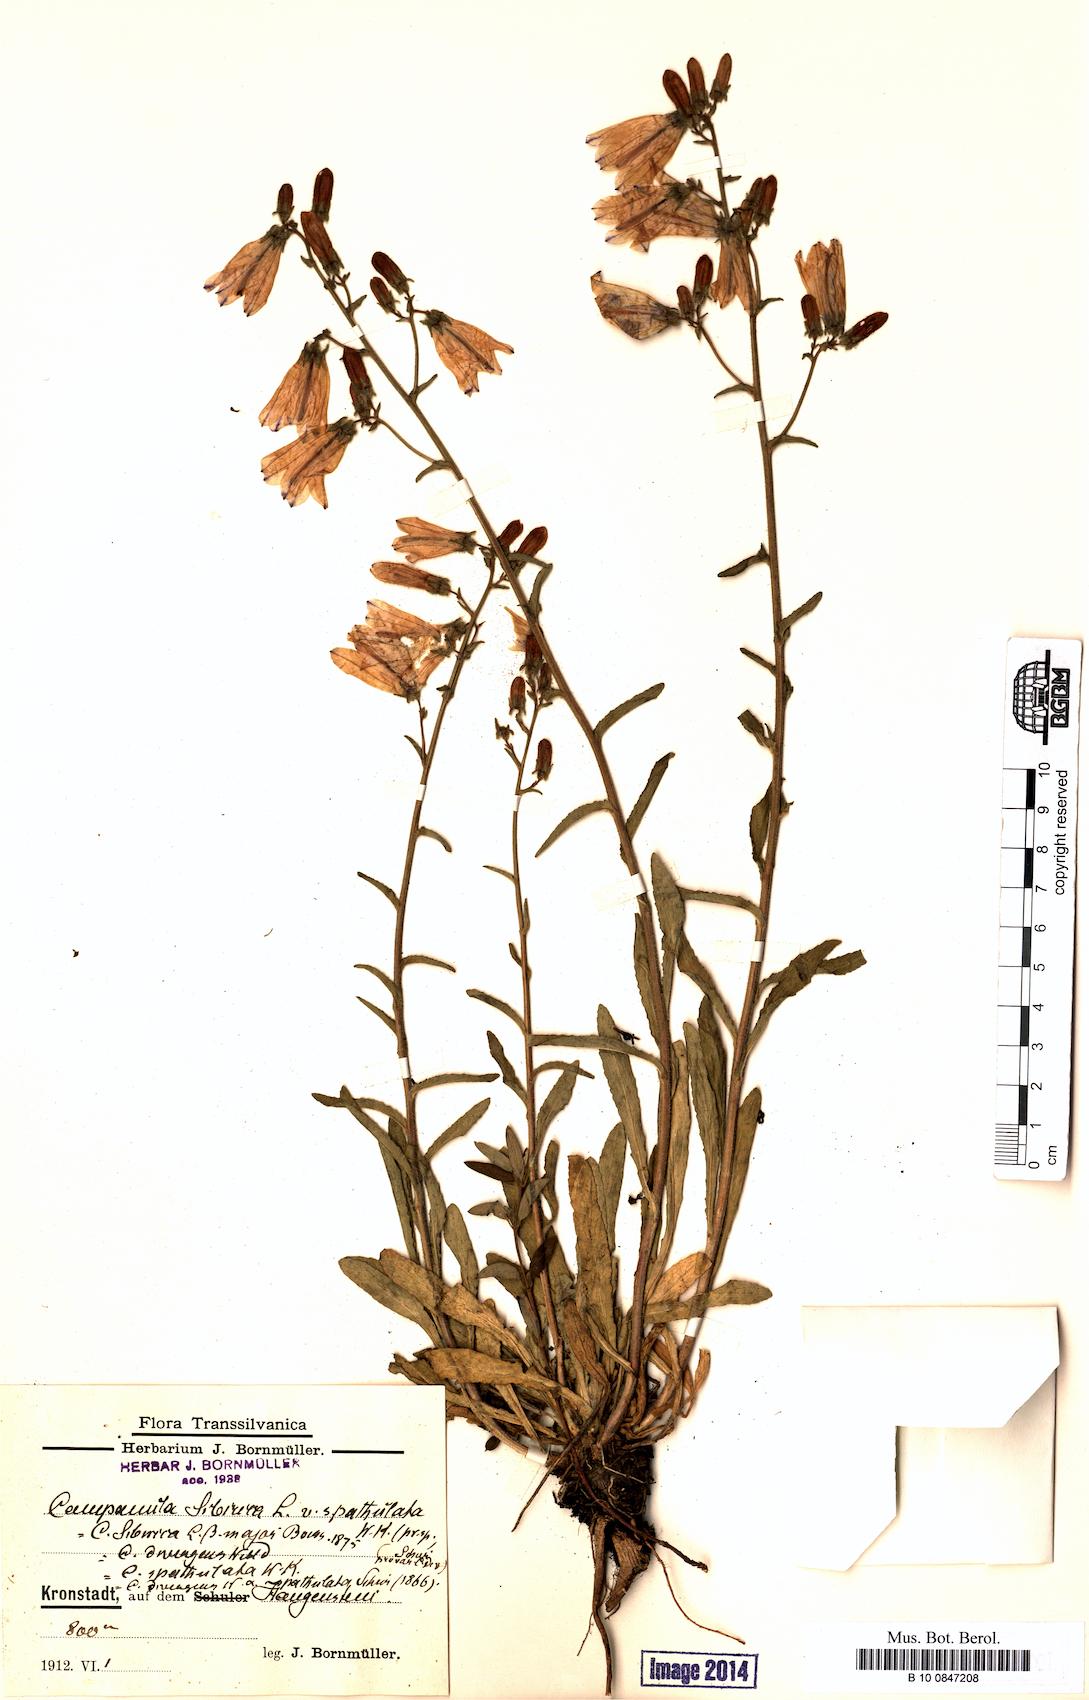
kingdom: Plantae
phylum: Tracheophyta
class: Magnoliopsida
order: Asterales
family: Campanulaceae
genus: Campanula
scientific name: Campanula sibirica
